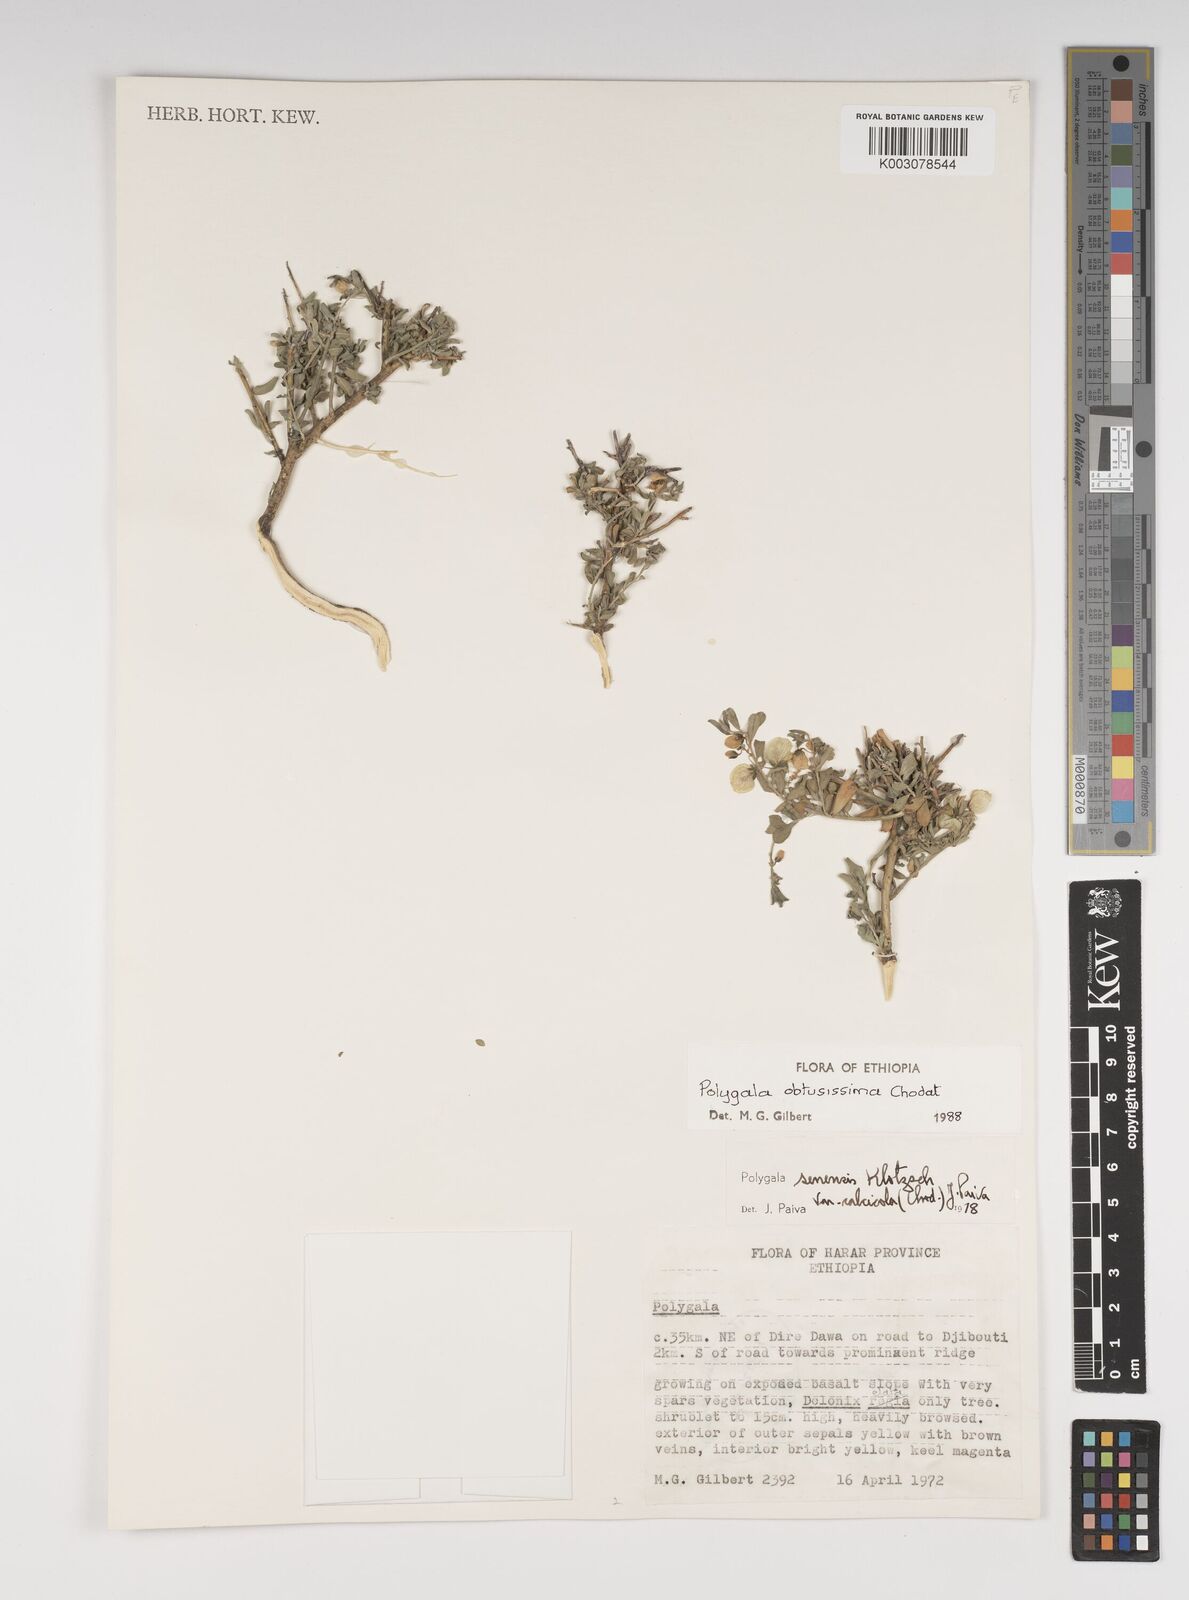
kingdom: Plantae
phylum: Tracheophyta
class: Magnoliopsida
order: Fabales
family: Polygalaceae
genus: Polygala
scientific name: Polygala obtusissima
